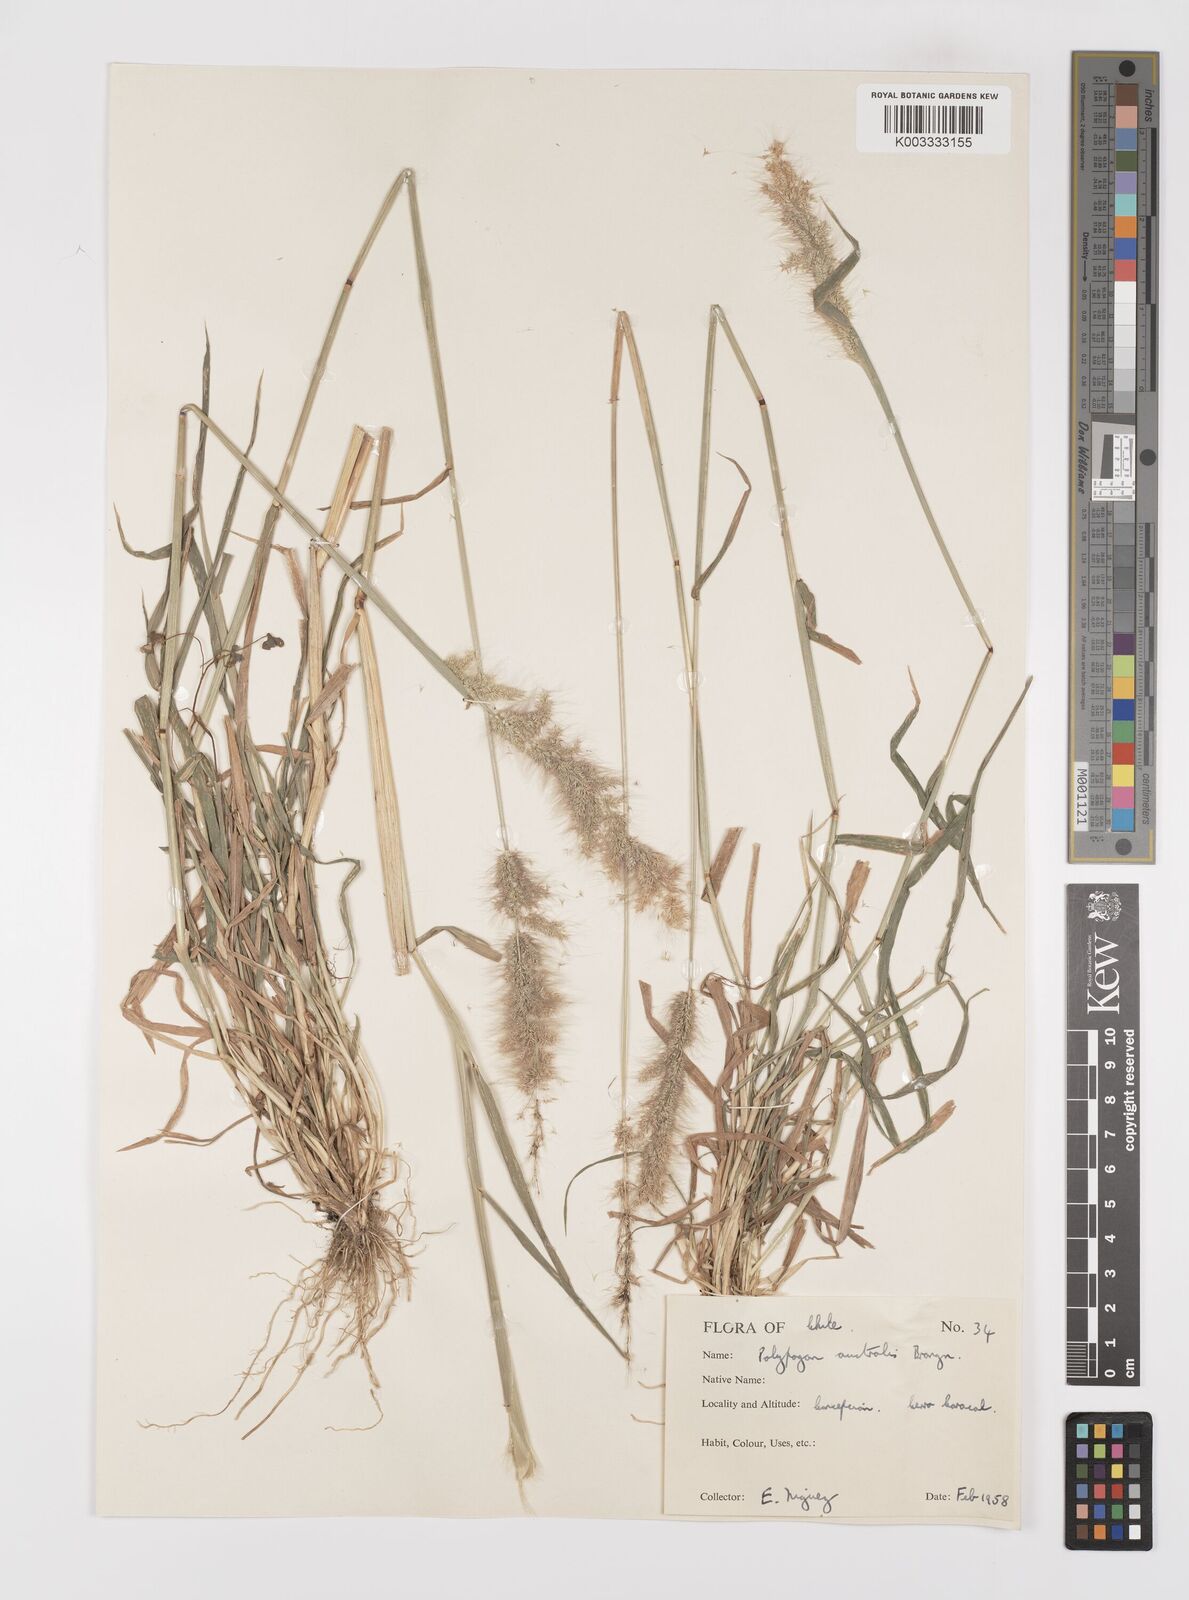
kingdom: Plantae
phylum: Tracheophyta
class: Liliopsida
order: Poales
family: Poaceae
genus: Polypogon
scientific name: Polypogon australis
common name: Chilean rabbitsfoot grass
